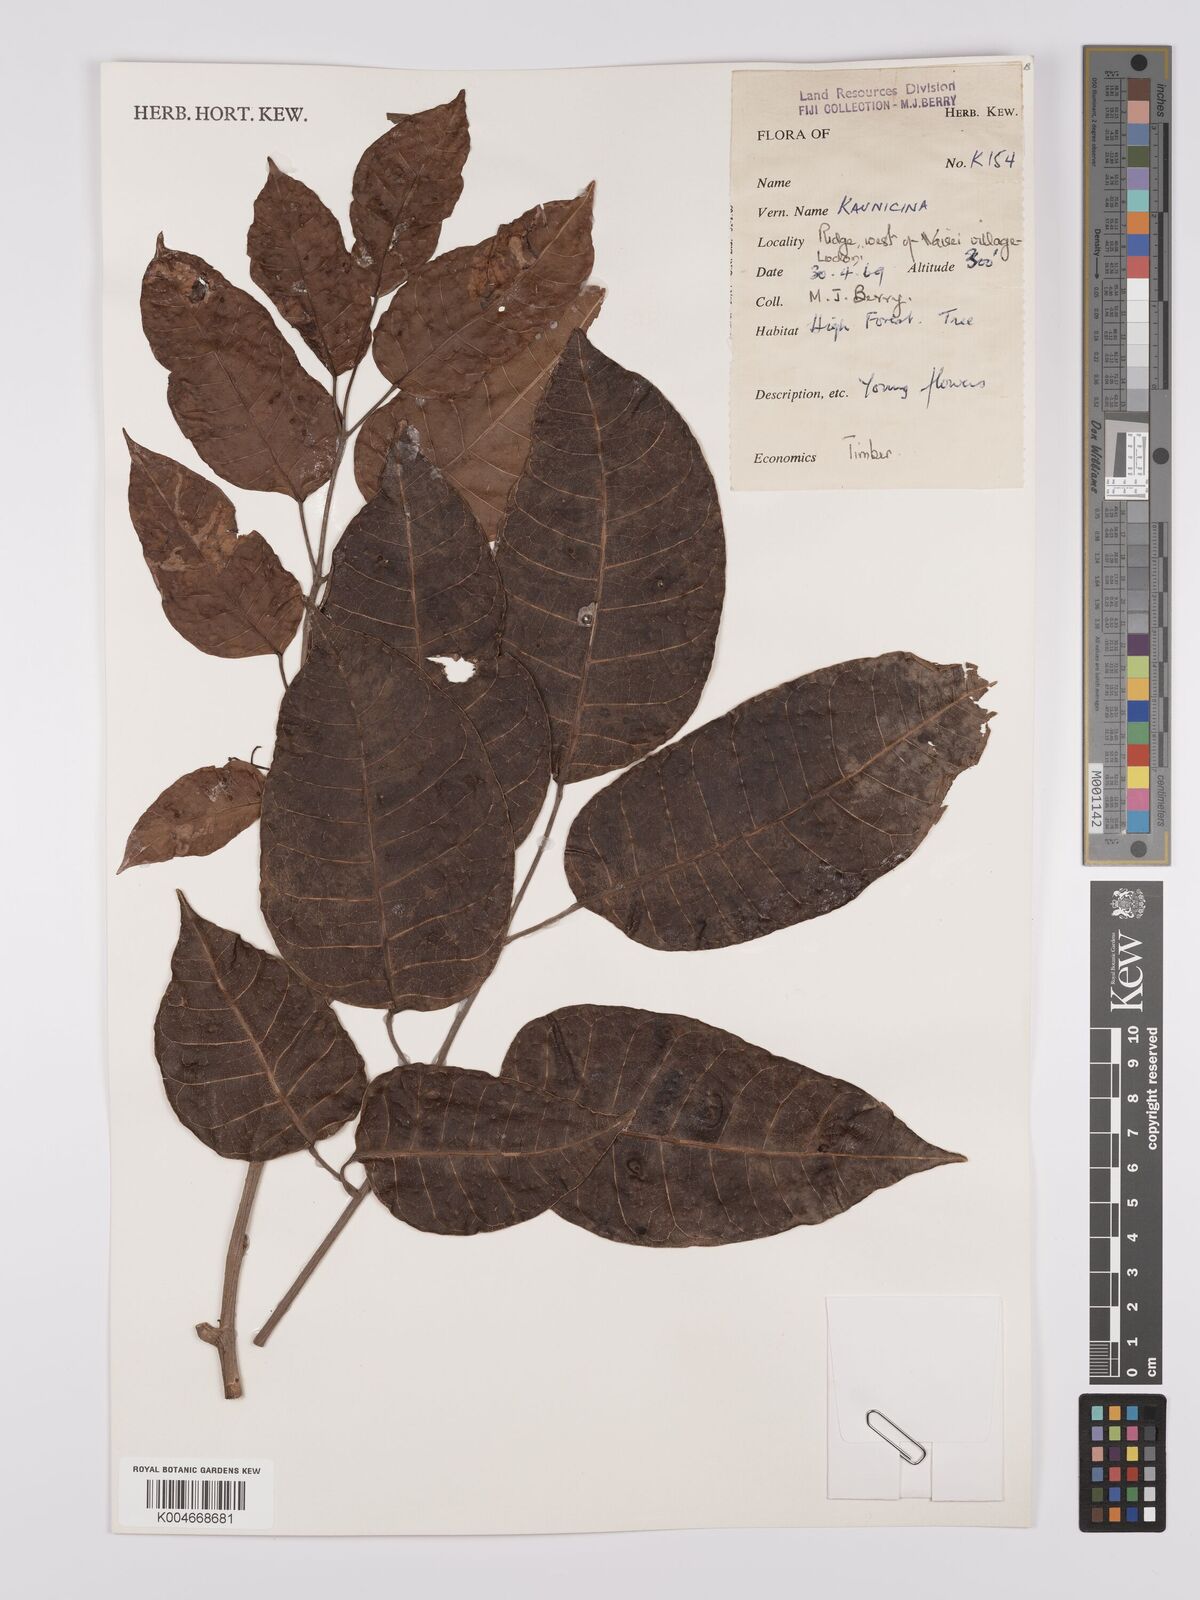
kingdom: Plantae
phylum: Tracheophyta
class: Magnoliopsida
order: Sapindales
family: Burseraceae
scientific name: Burseraceae
